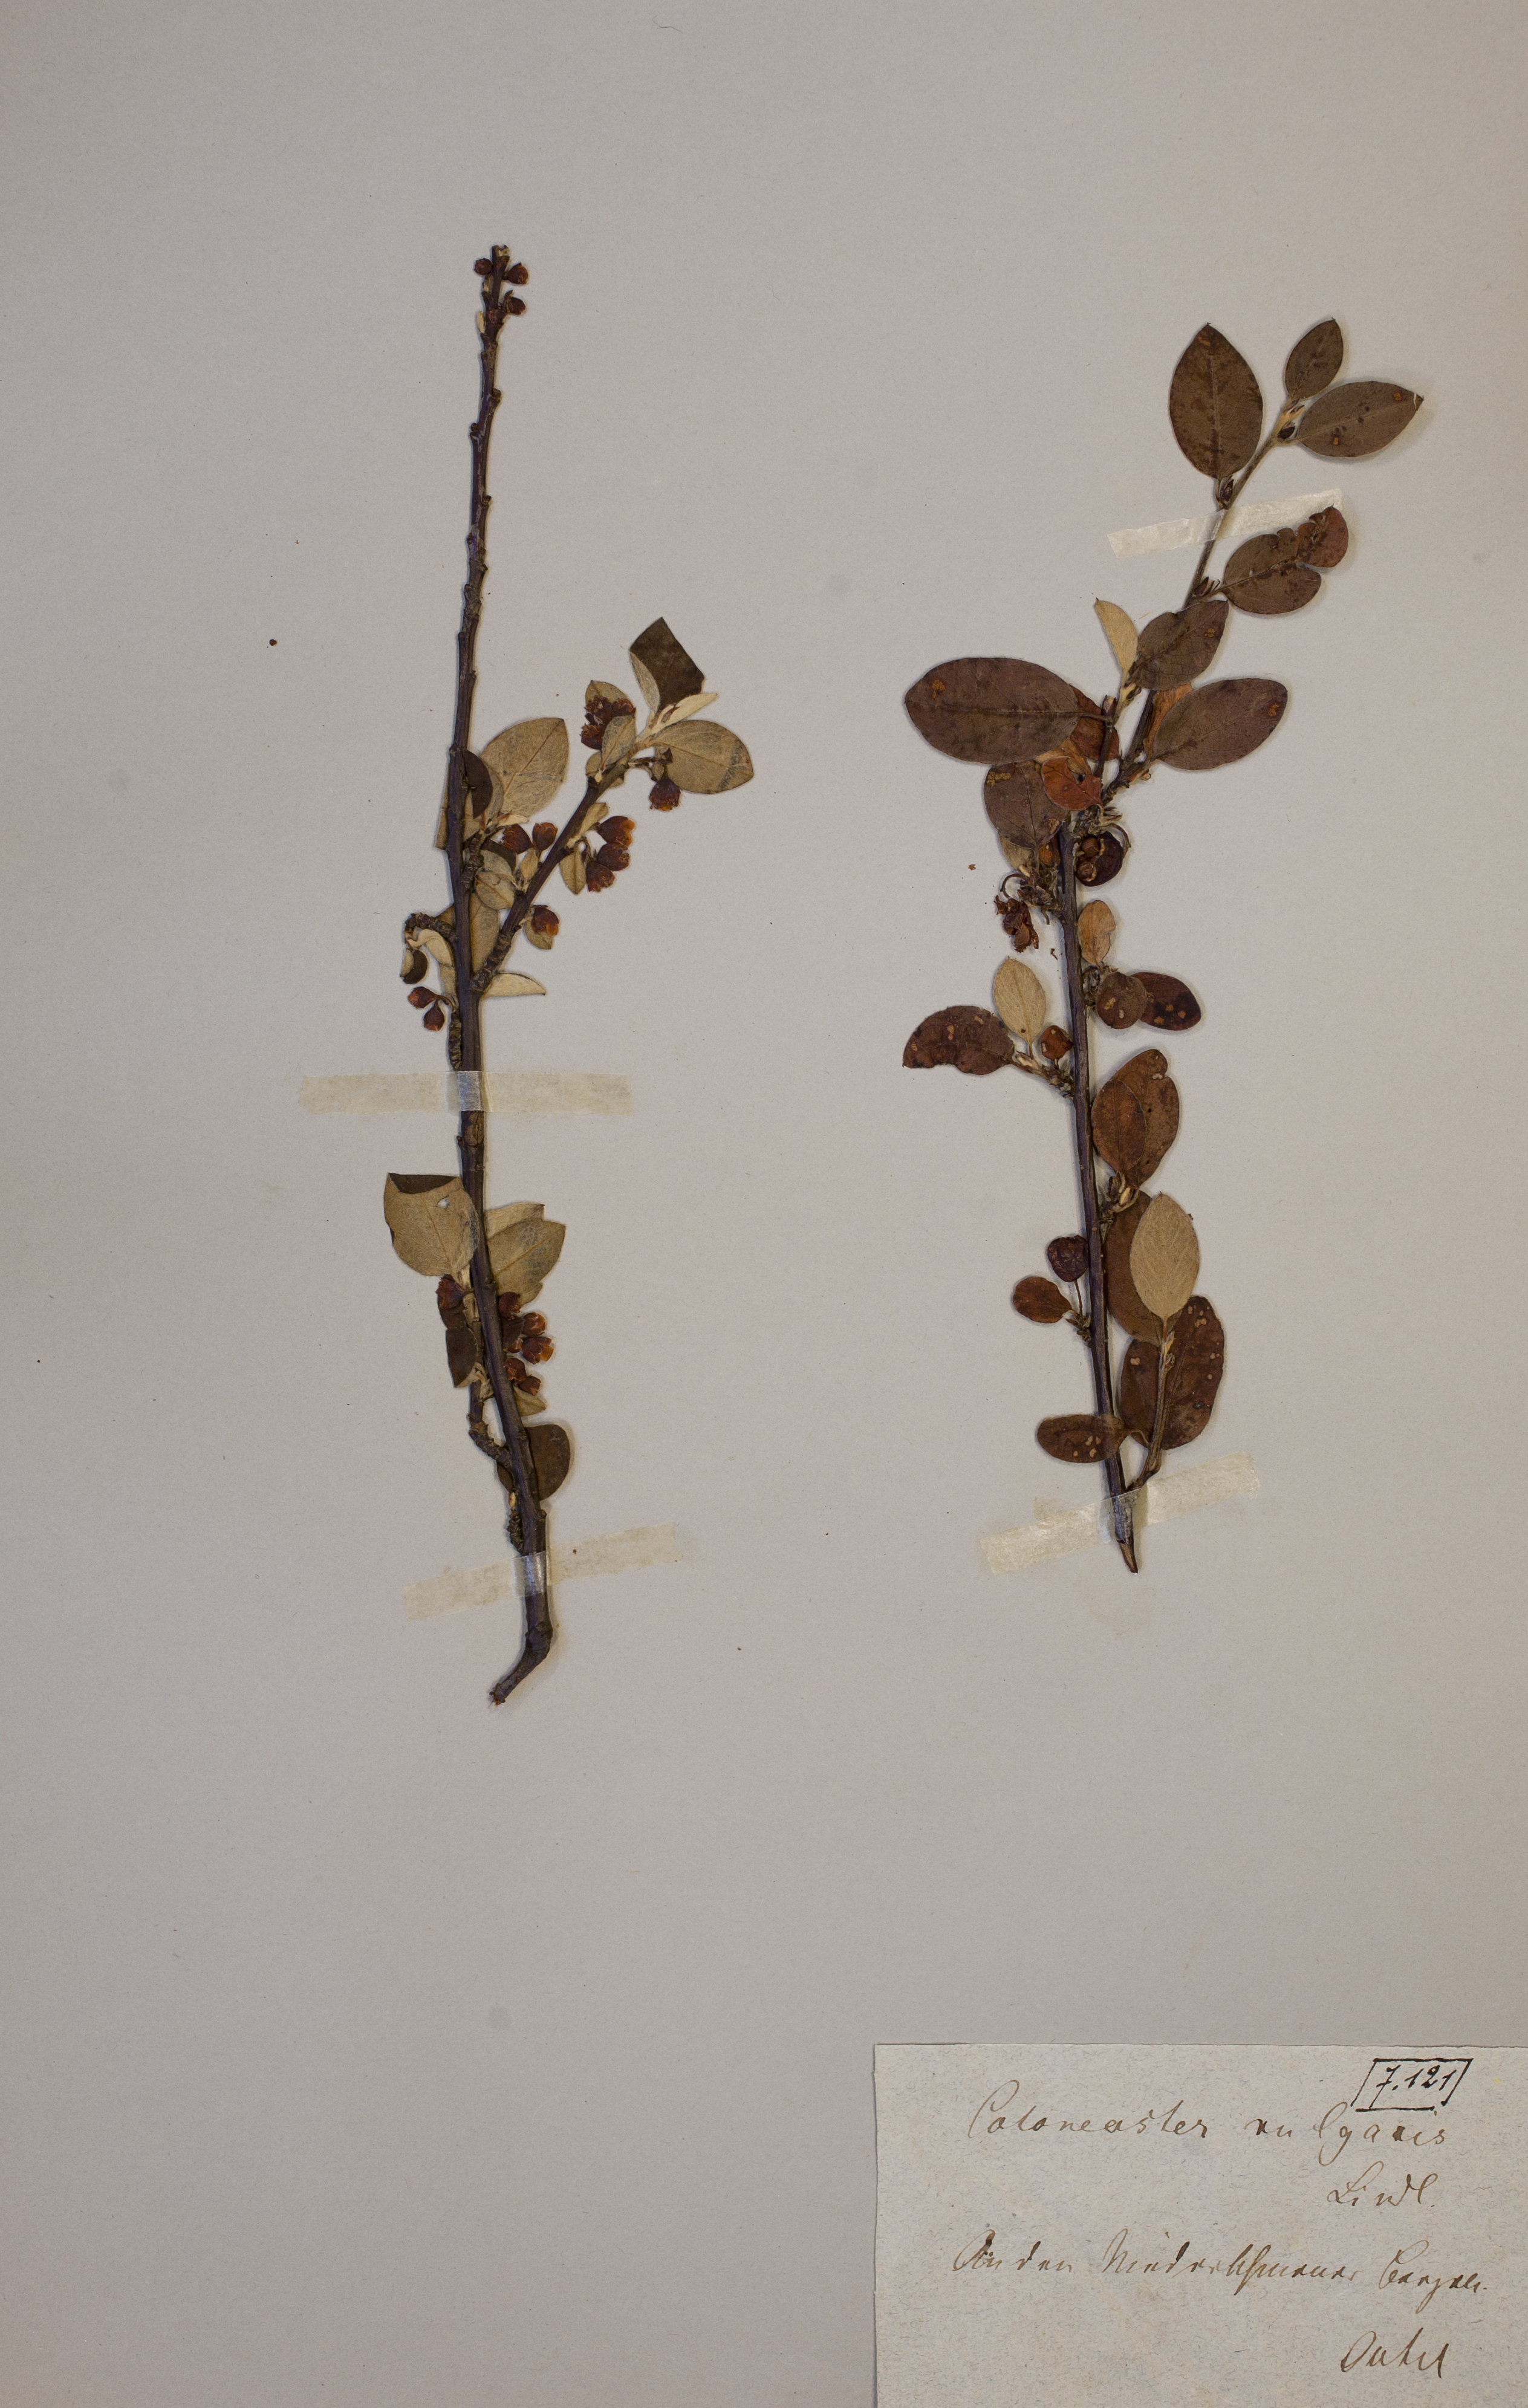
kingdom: Plantae
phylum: Tracheophyta
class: Magnoliopsida
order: Rosales
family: Rosaceae
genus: Cotoneaster
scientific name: Cotoneaster integerrimus
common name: Wild cotoneaster
